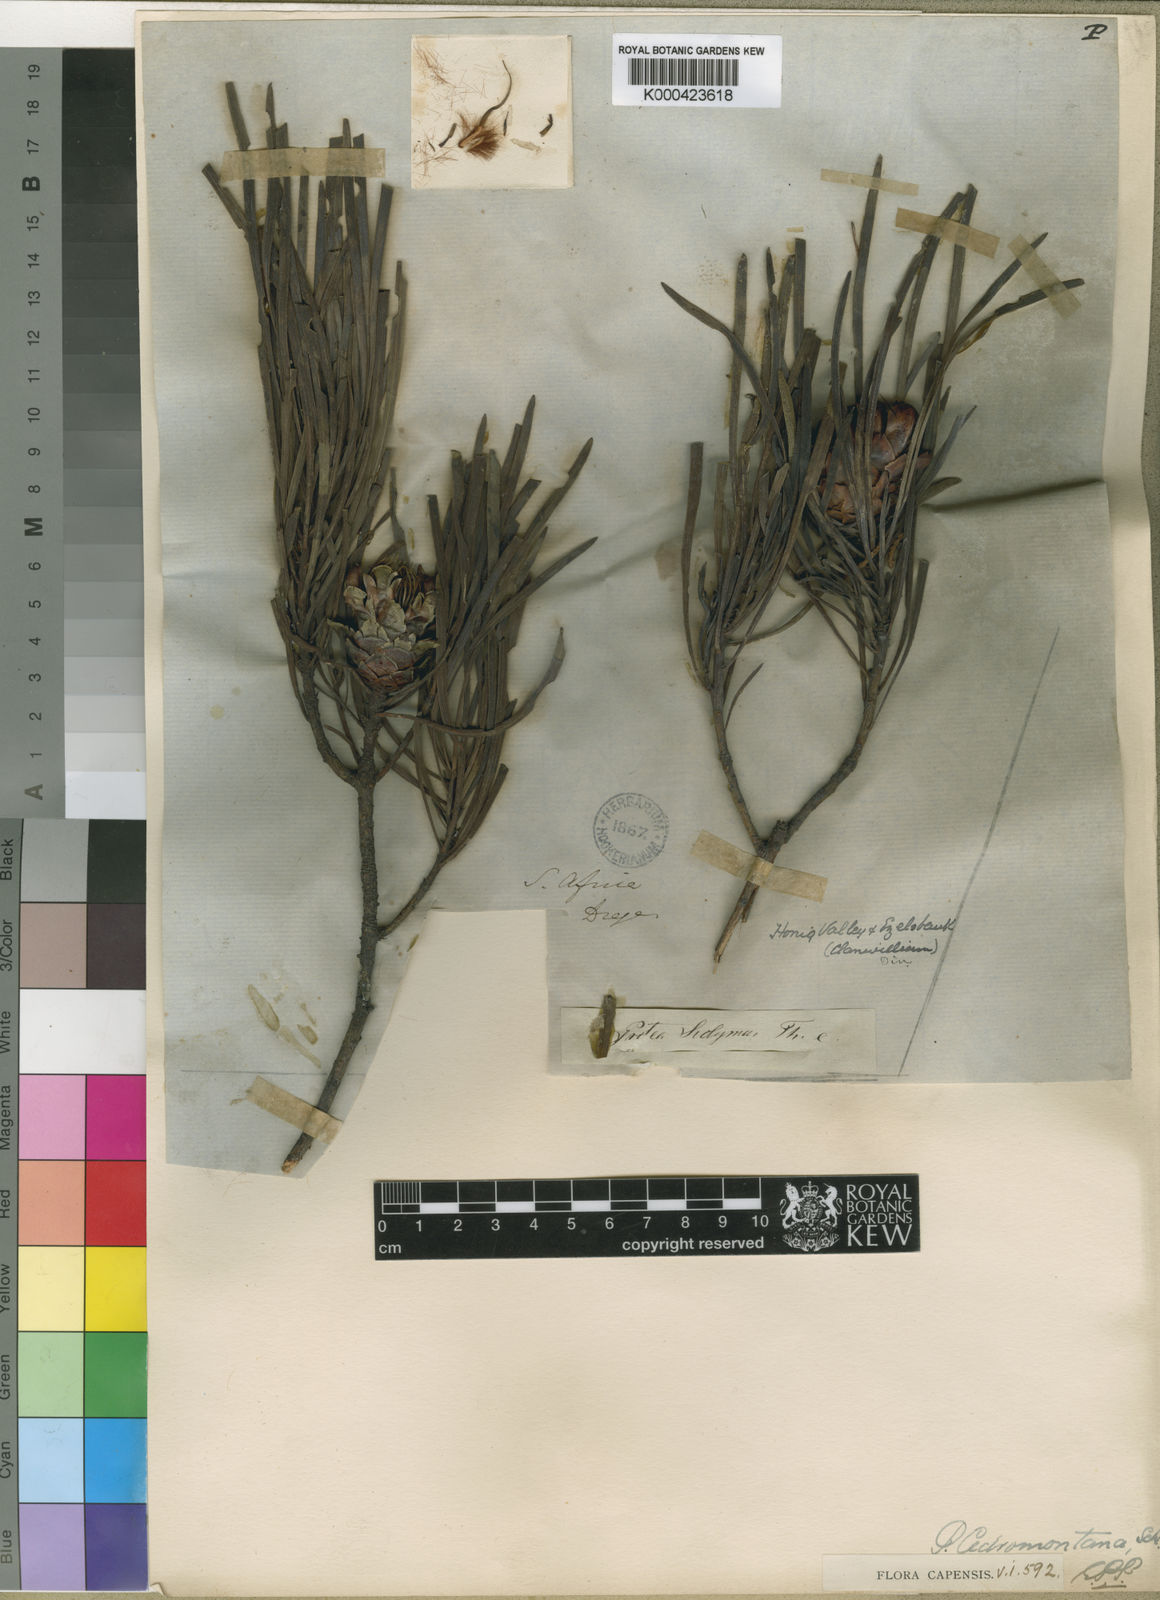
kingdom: Plantae
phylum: Tracheophyta
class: Magnoliopsida
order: Proteales
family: Proteaceae
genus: Protea
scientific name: Protea acuminata
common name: Black-rim sugarbush
